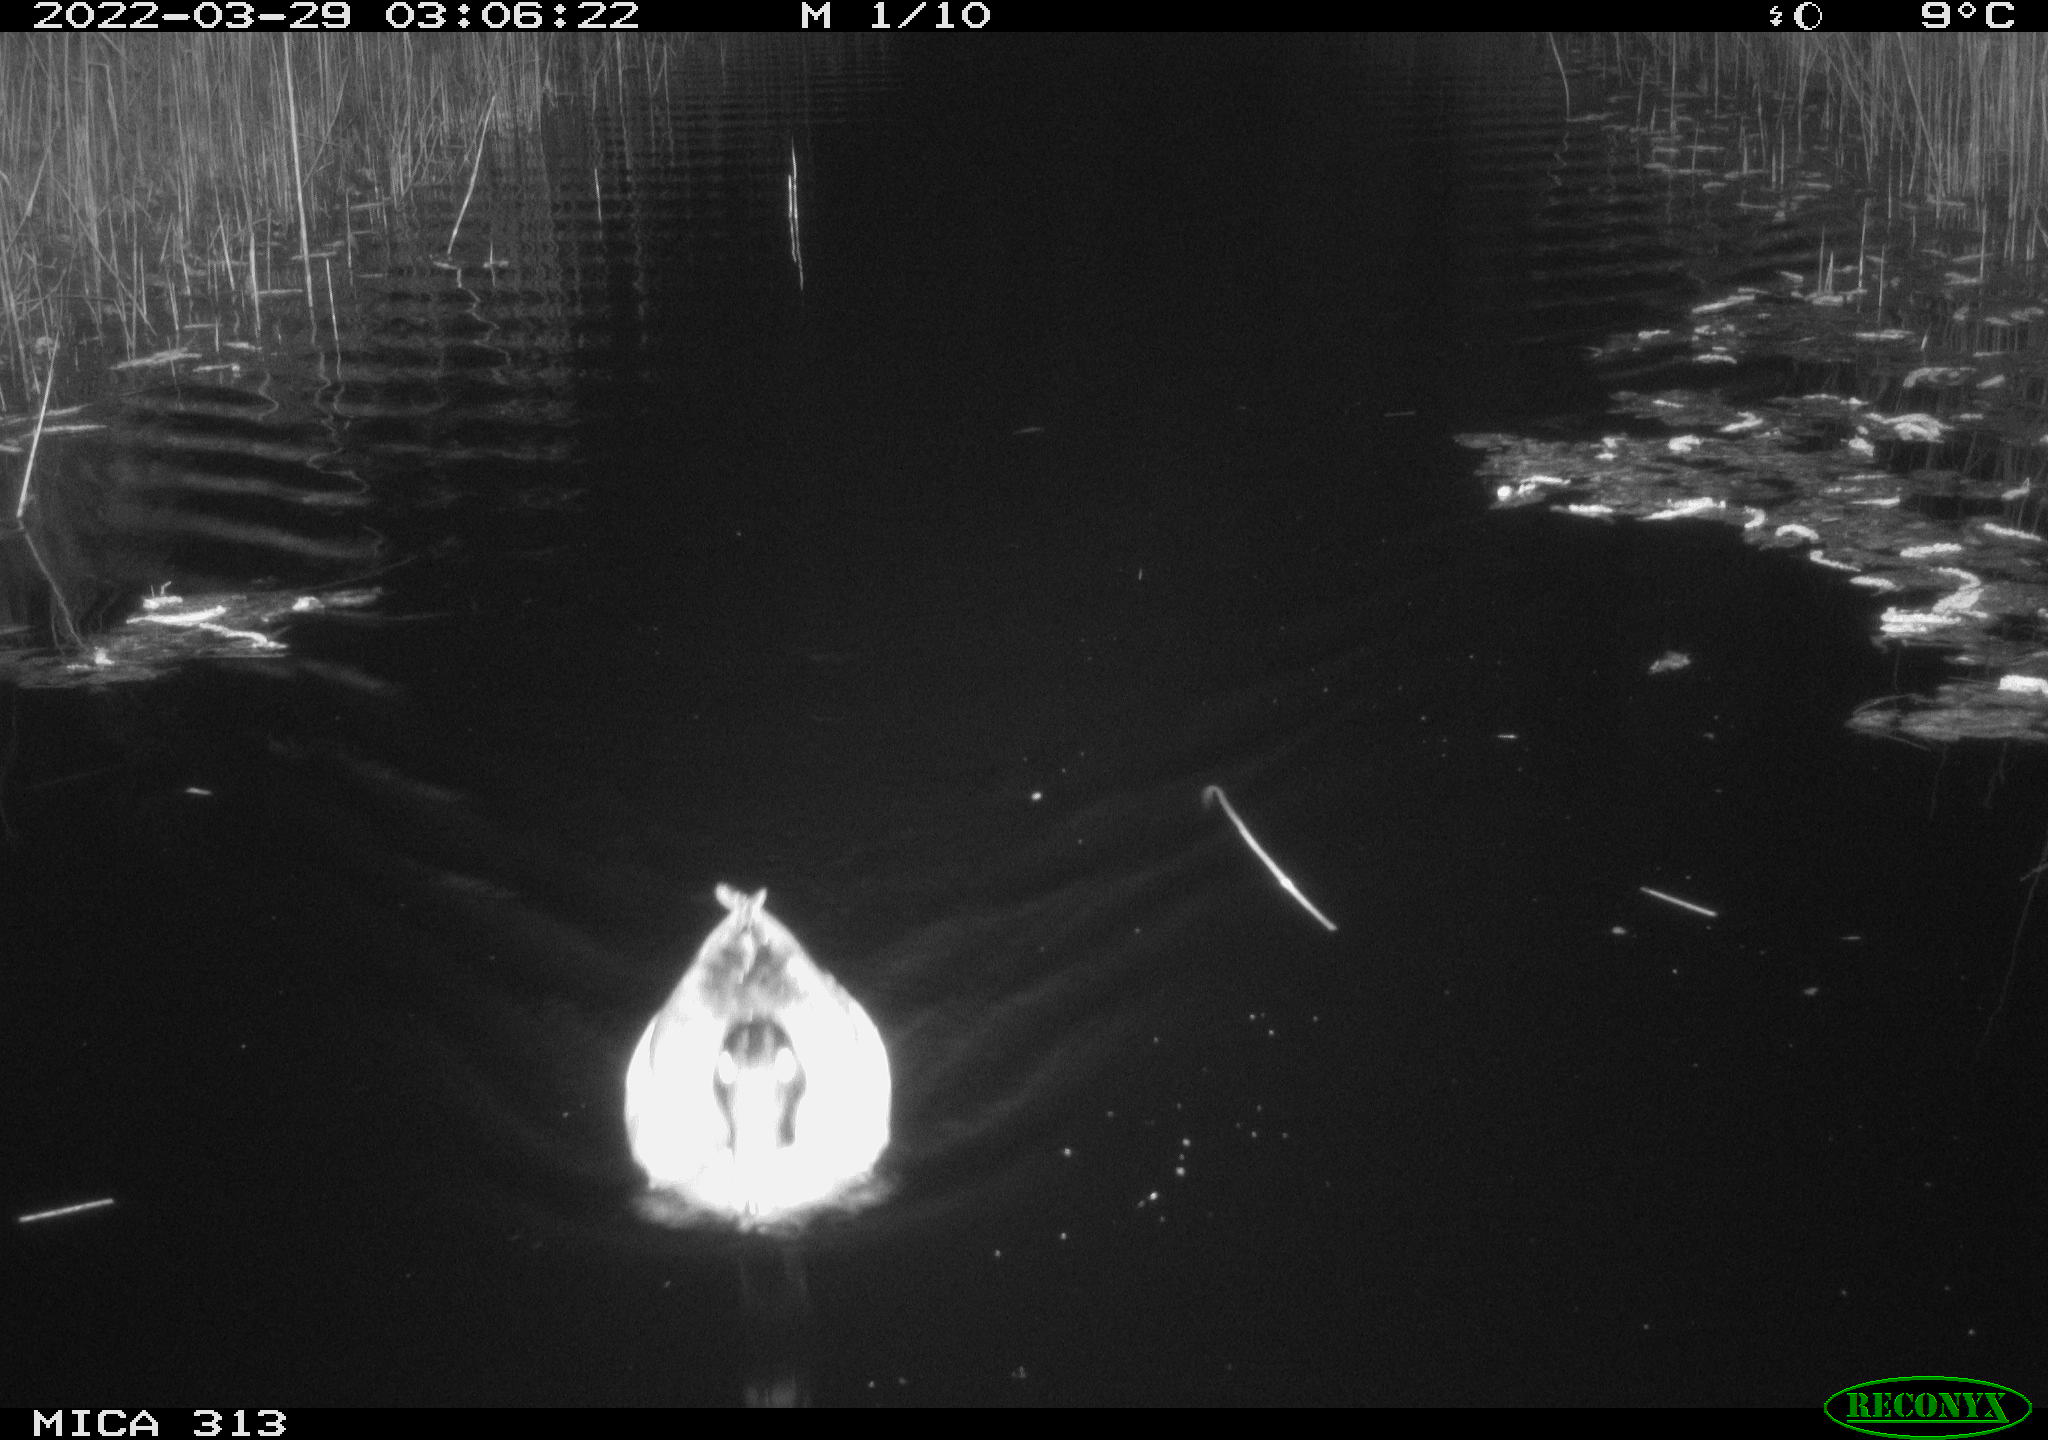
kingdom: Animalia
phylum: Chordata
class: Aves
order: Anseriformes
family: Anatidae
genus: Anas
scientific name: Anas platyrhynchos
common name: Mallard
